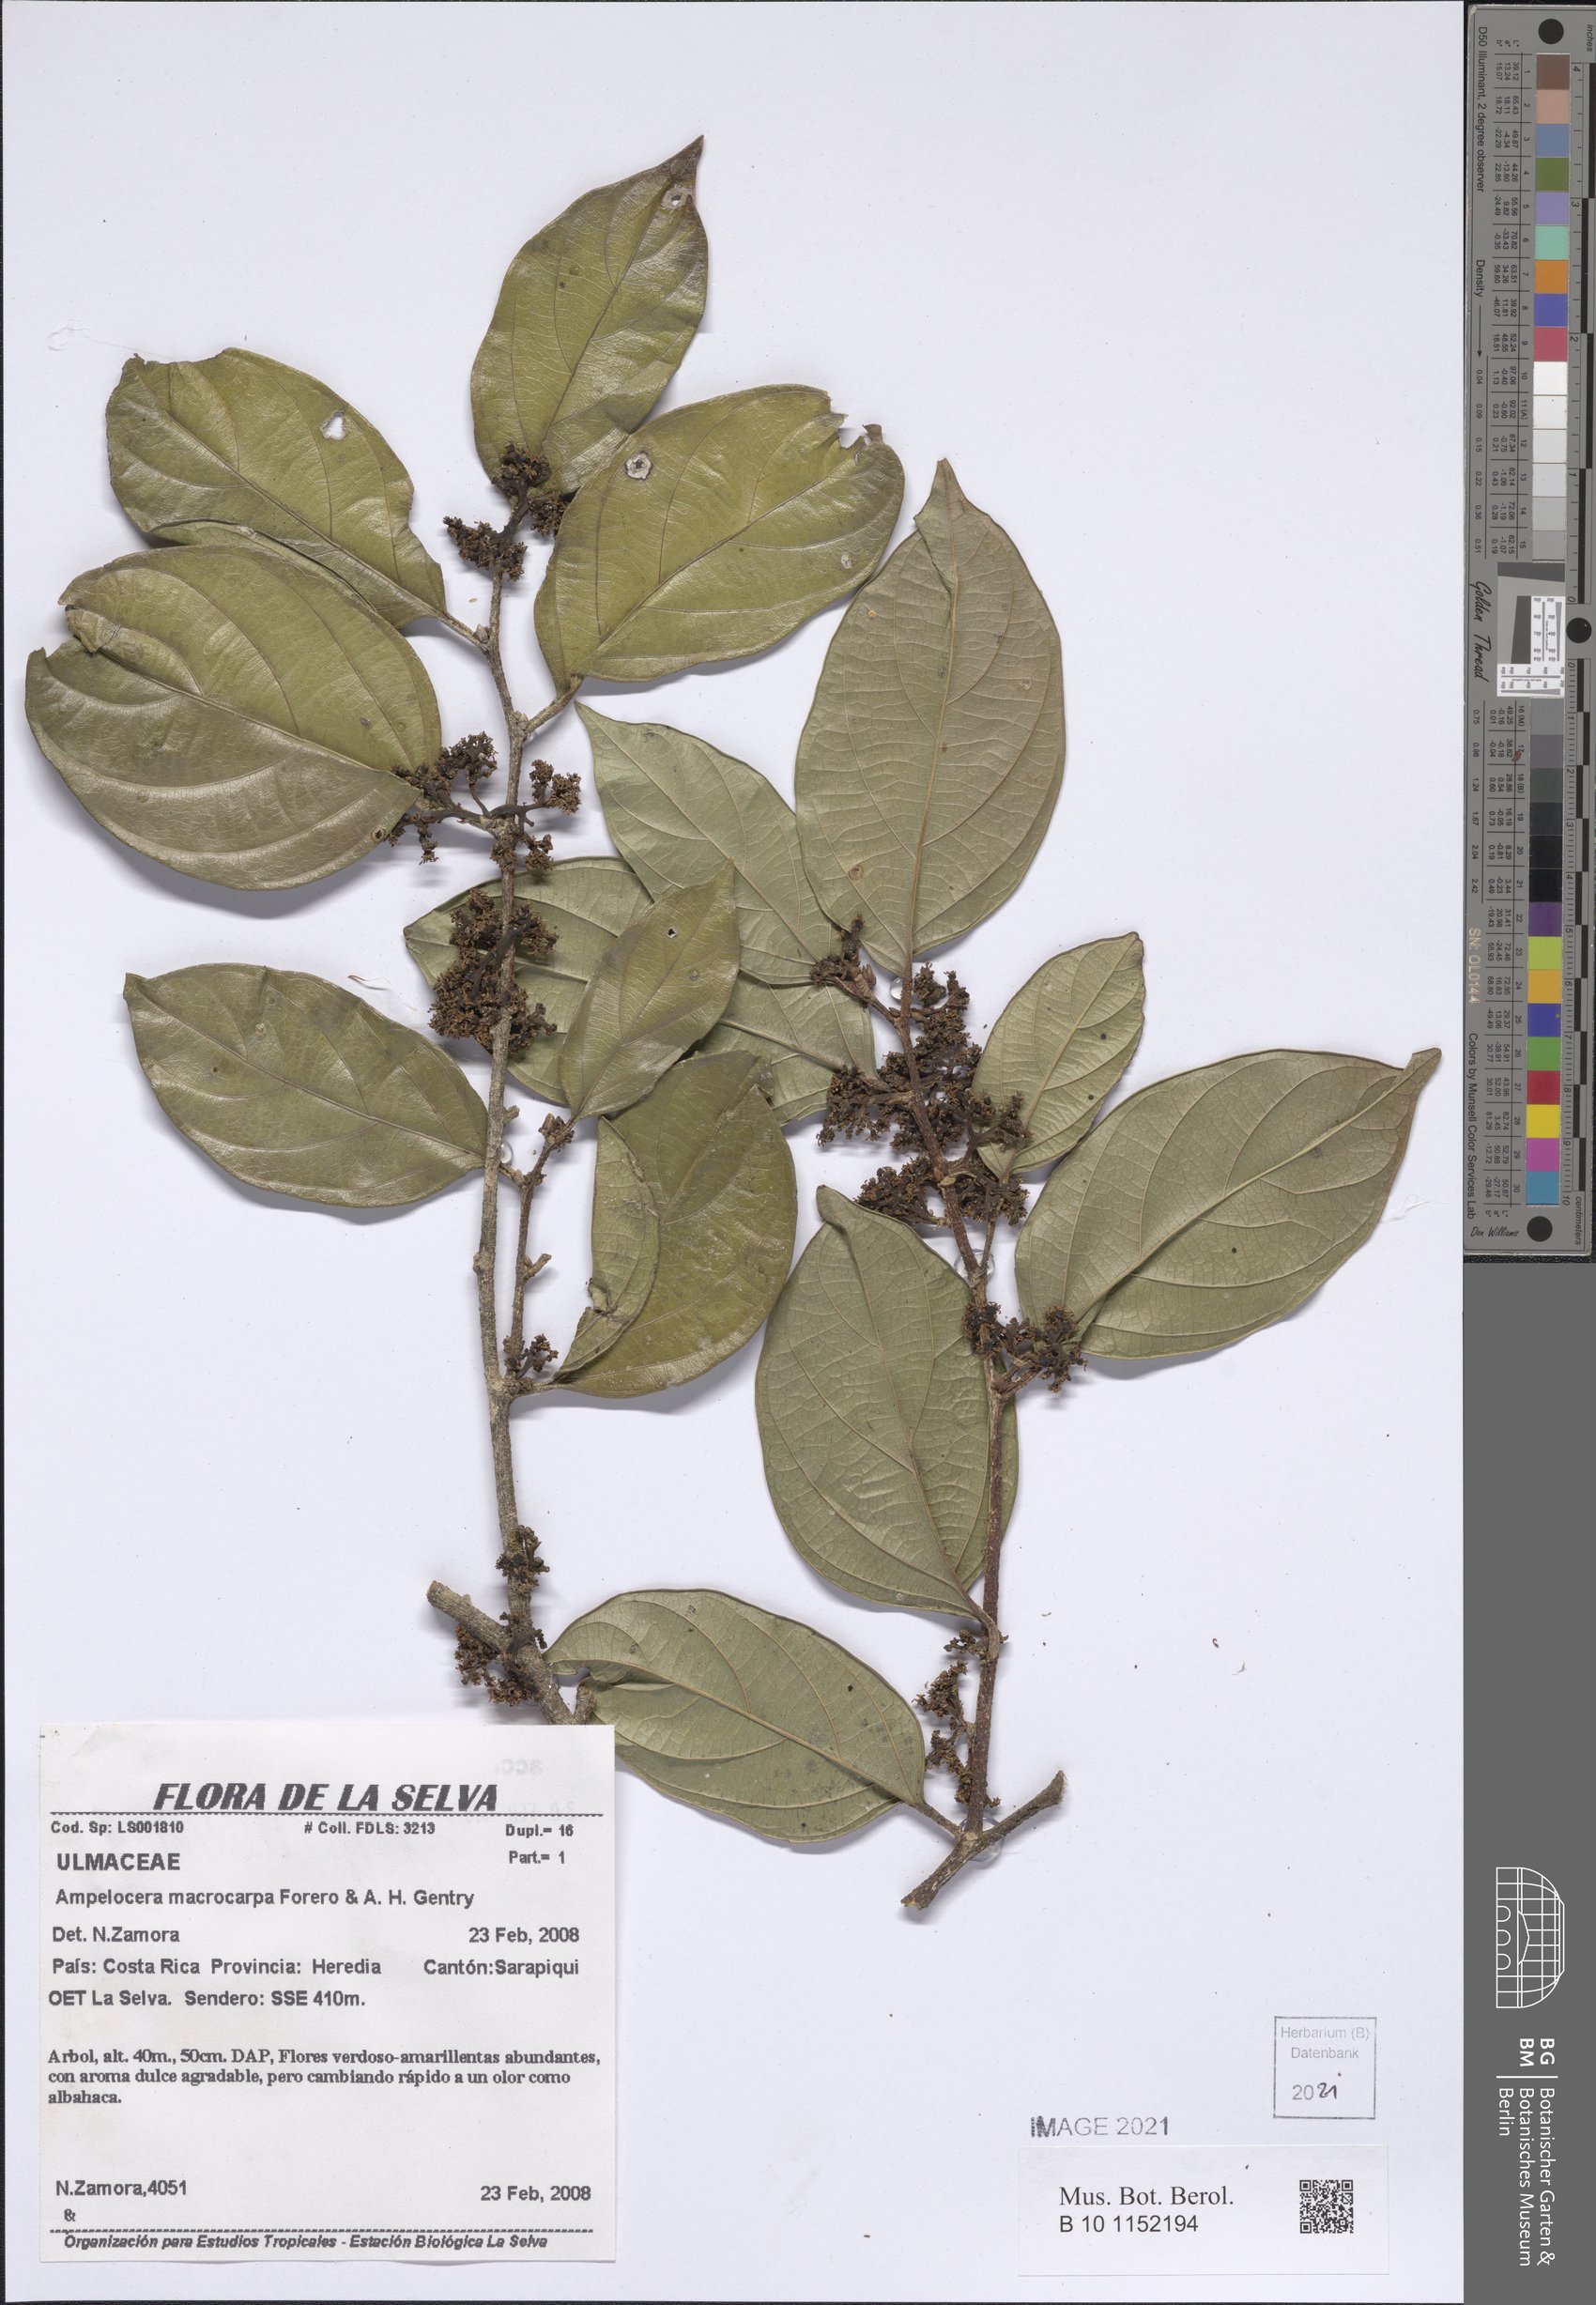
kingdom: Plantae
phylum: Tracheophyta
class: Magnoliopsida
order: Rosales
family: Cannabaceae
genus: Ampelocera
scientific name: Ampelocera macrocarpa
